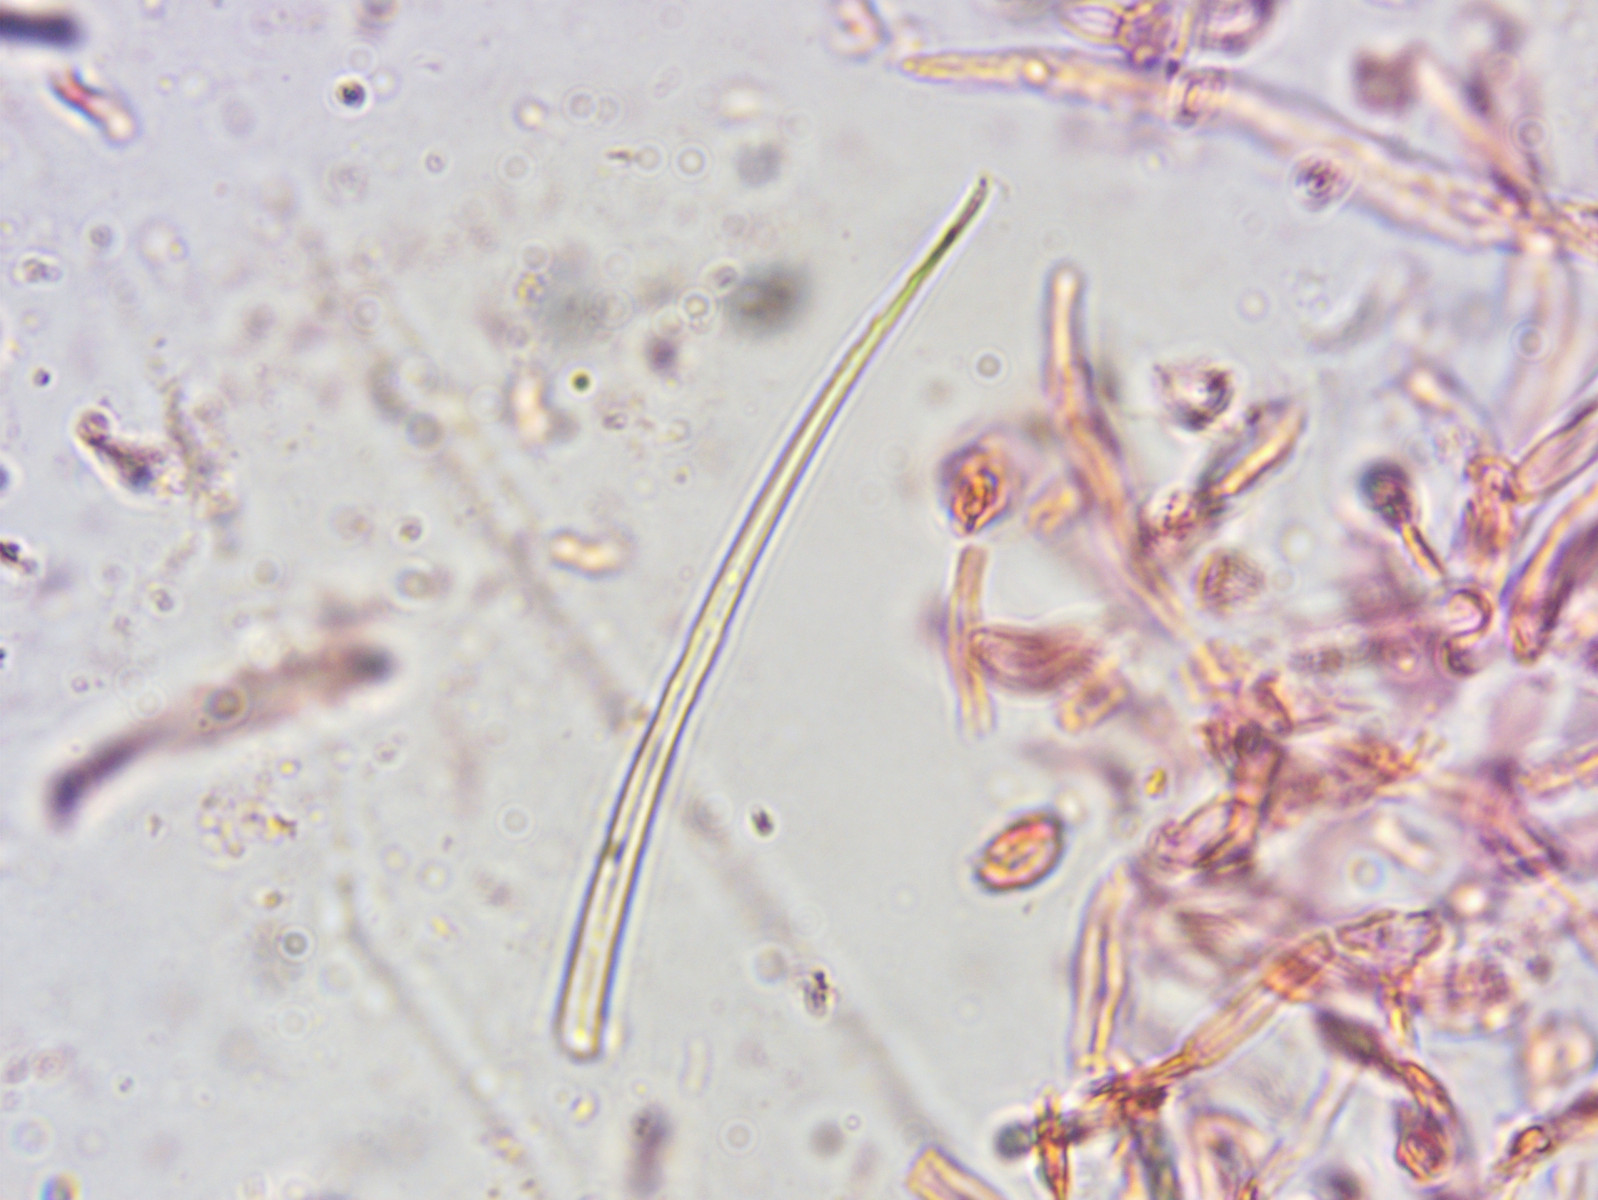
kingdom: Fungi
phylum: Basidiomycota
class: Agaricomycetes
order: Russulales
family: Russulaceae
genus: Russula
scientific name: Russula heterophylla
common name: gaffelbladet skørhat
